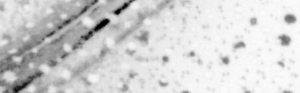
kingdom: Animalia
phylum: Chordata
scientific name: Chordata
